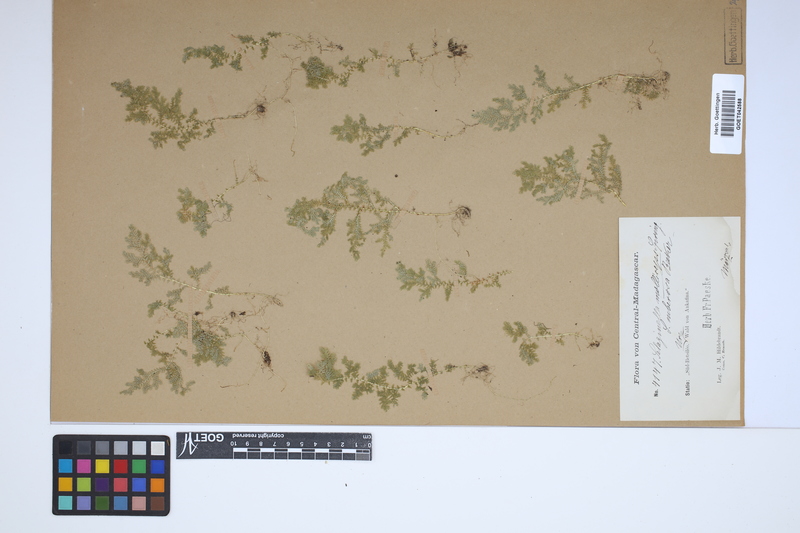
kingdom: Plantae
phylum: Tracheophyta
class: Lycopodiopsida
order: Selaginellales
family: Selaginellaceae
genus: Selaginella
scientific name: Selaginella molliceps
